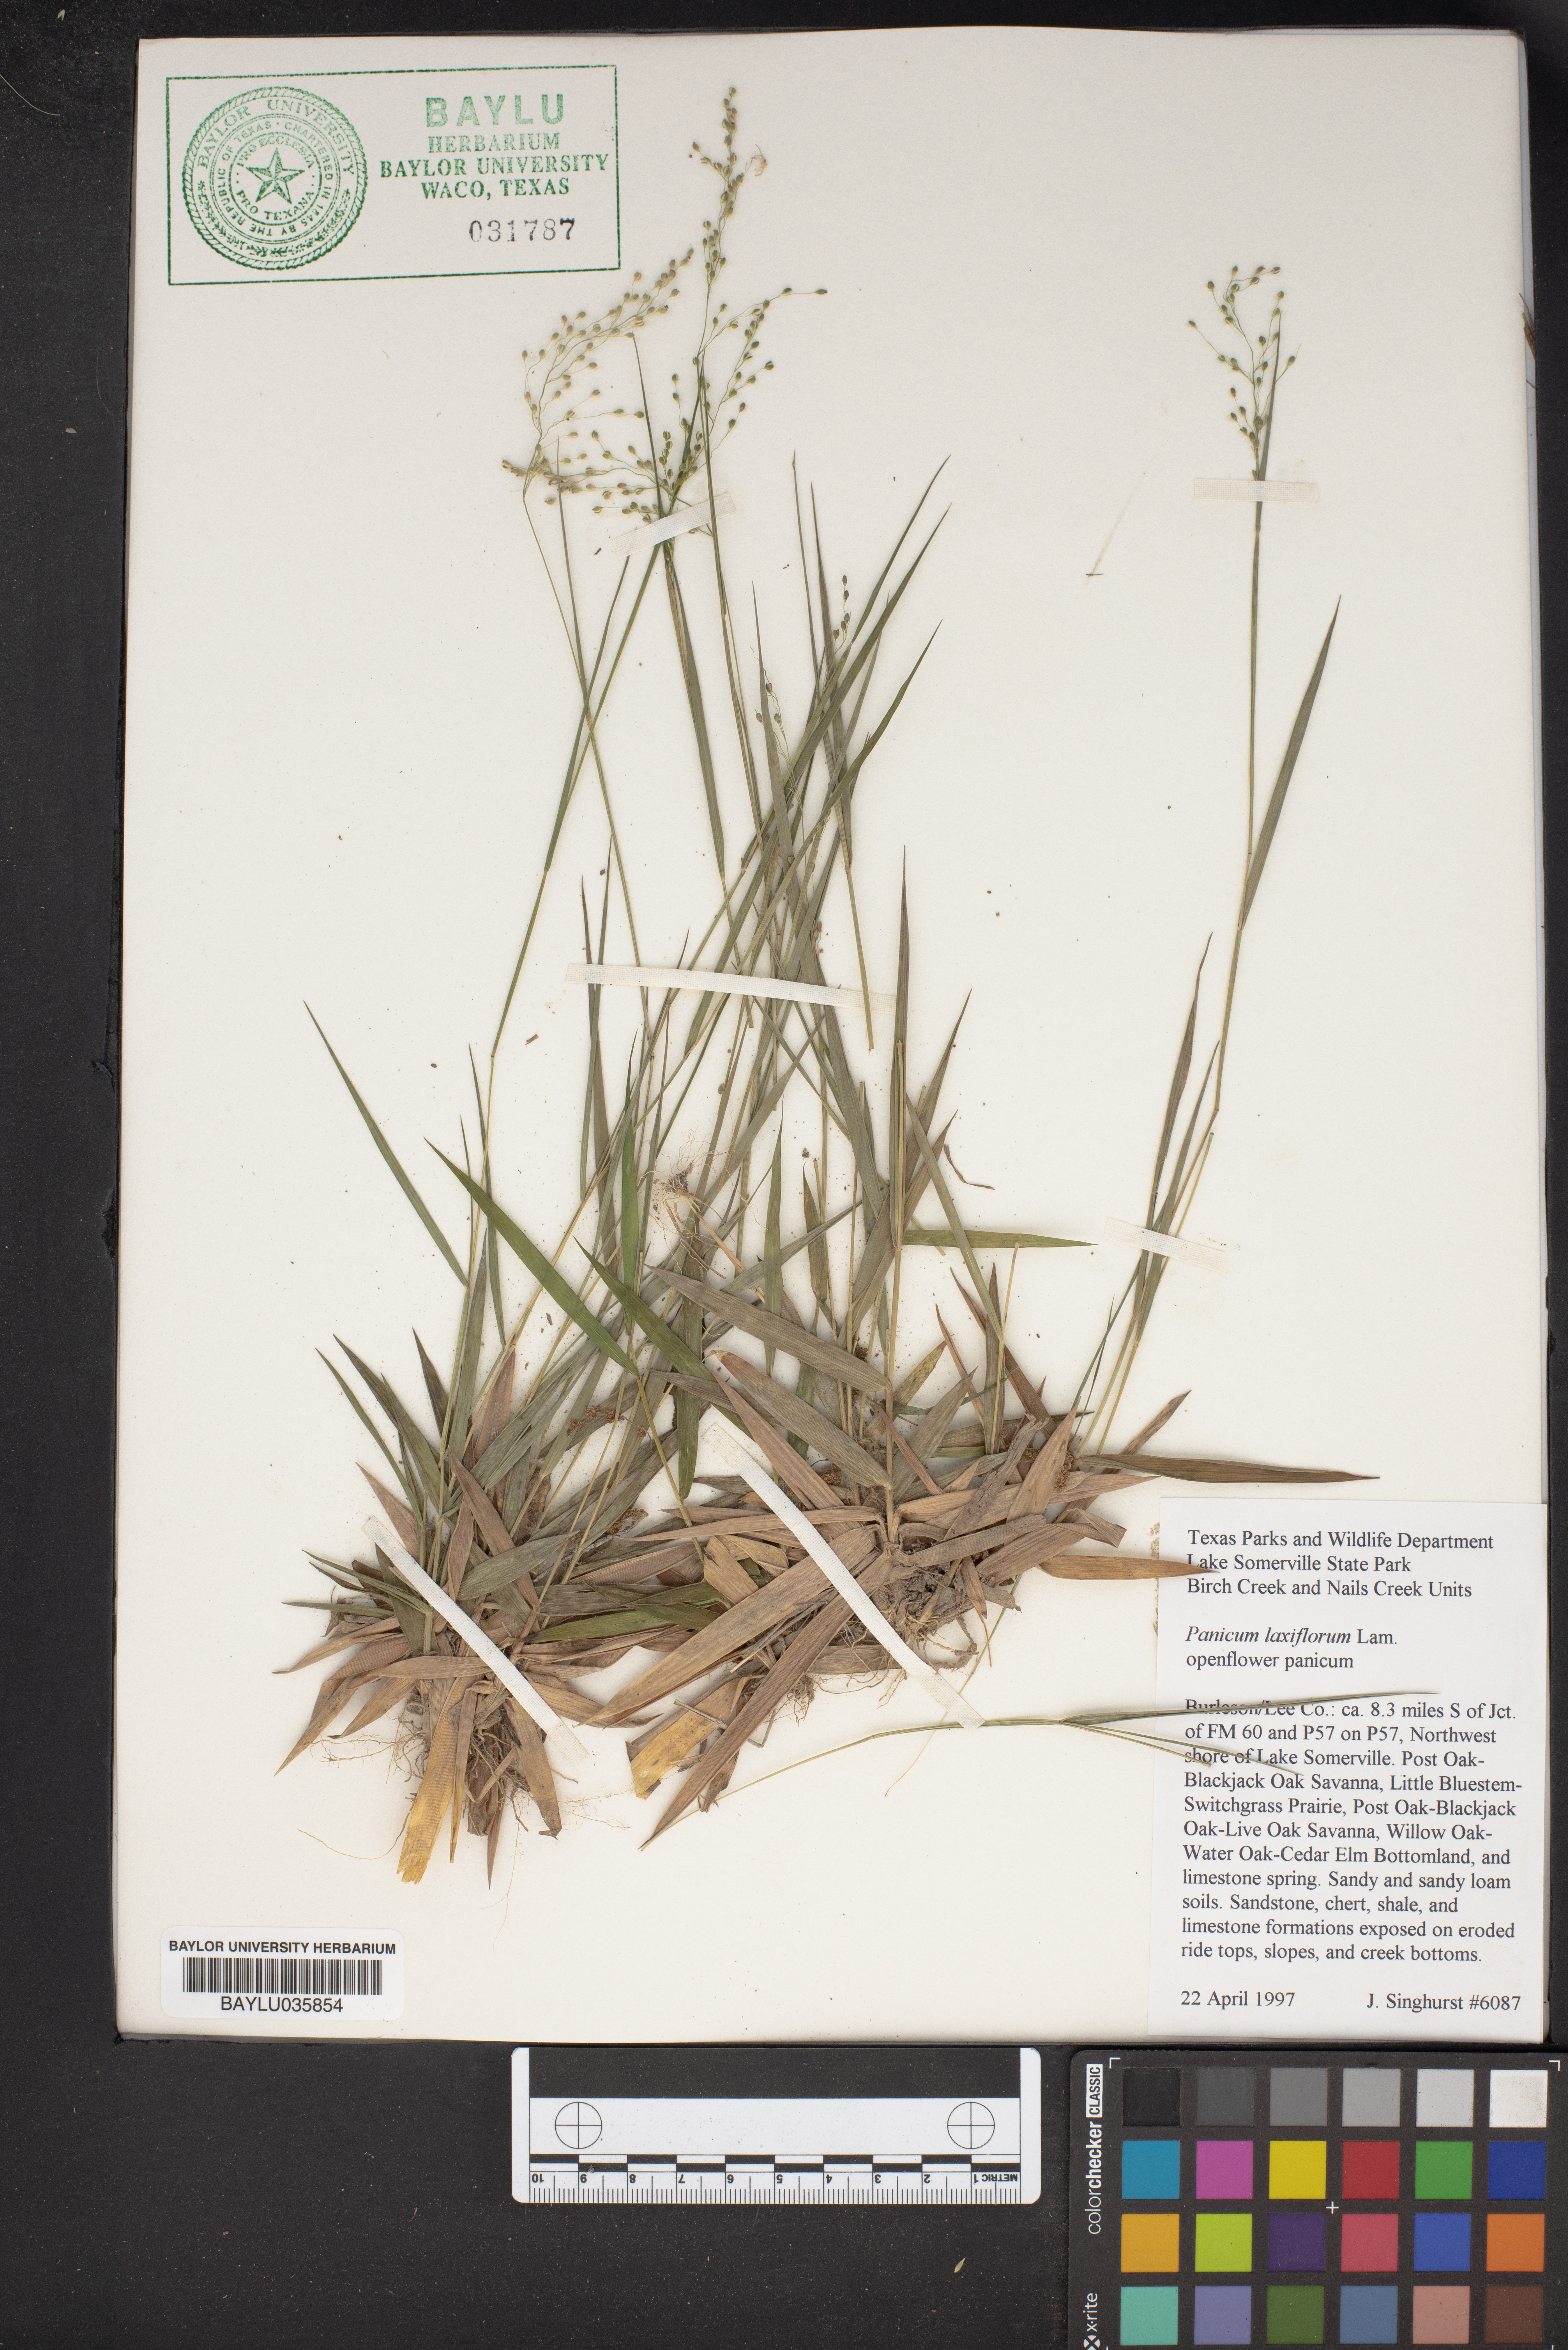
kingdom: Plantae
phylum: Tracheophyta
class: Liliopsida
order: Poales
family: Poaceae
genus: Dichanthelium
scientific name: Dichanthelium laxiflorum
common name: Soft-tuft panic grass
